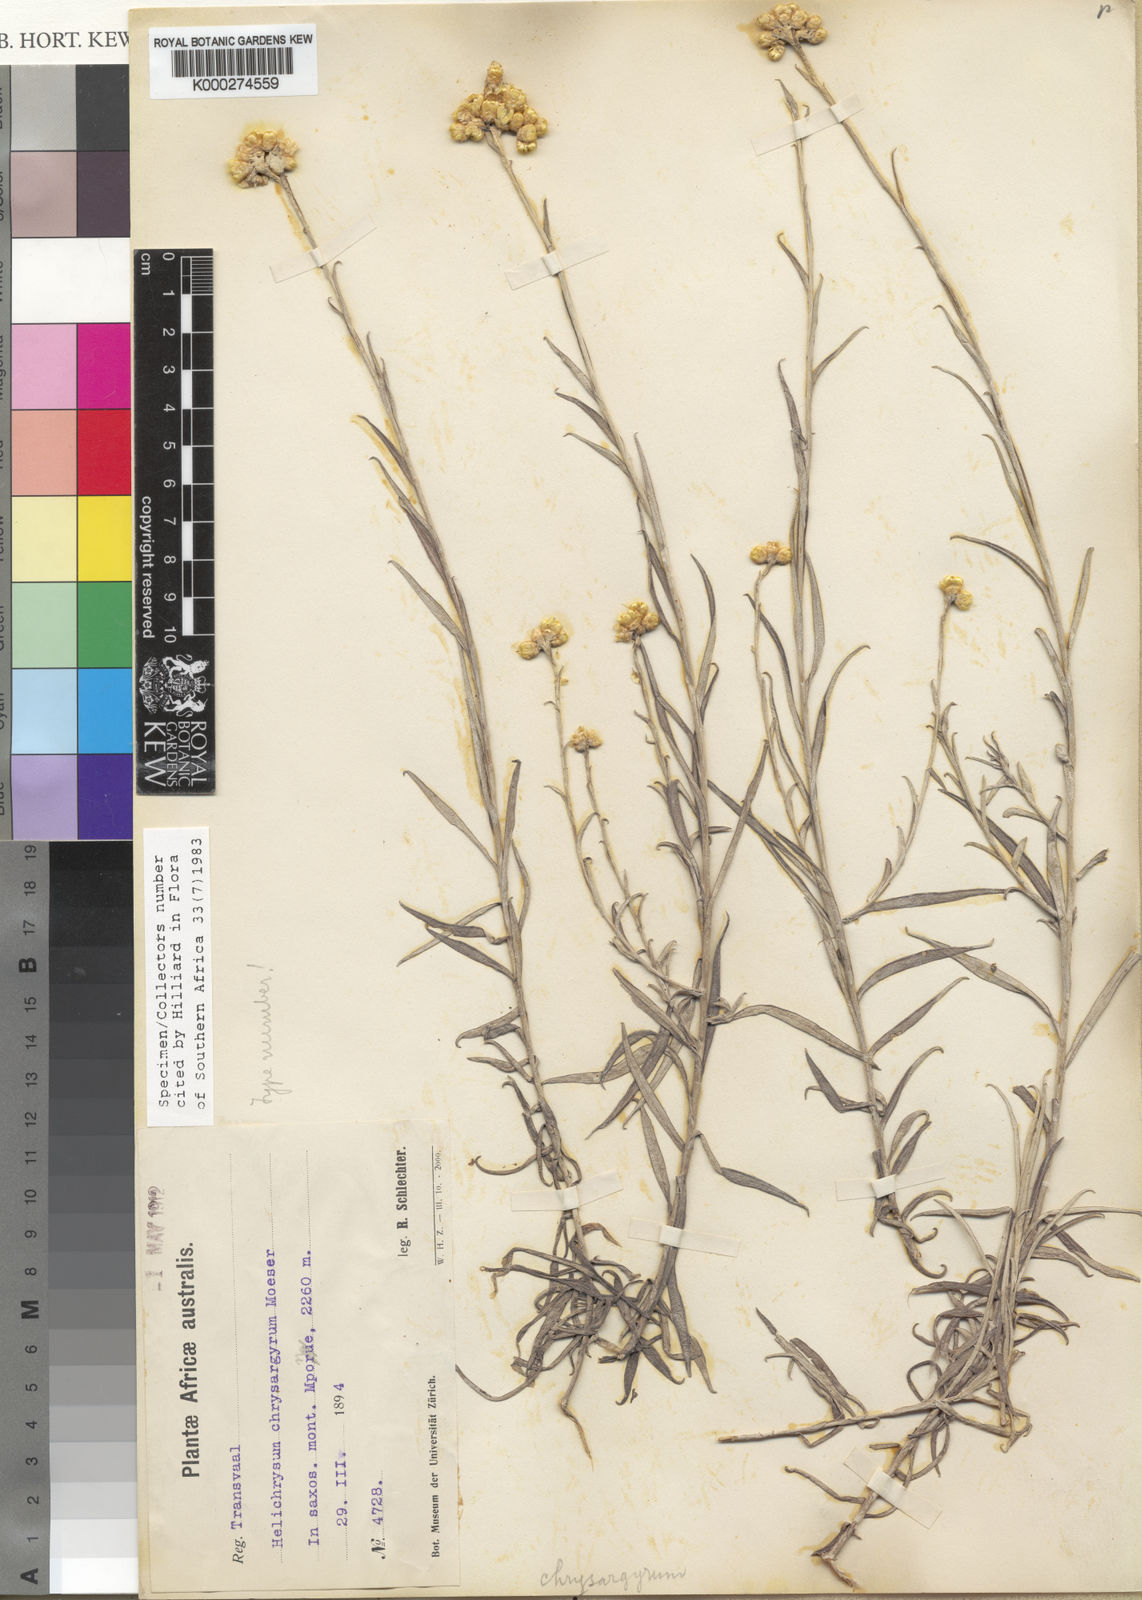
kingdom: Plantae
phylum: Tracheophyta
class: Magnoliopsida
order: Asterales
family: Asteraceae
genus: Helichrysum
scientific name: Helichrysum chrysargyrum
